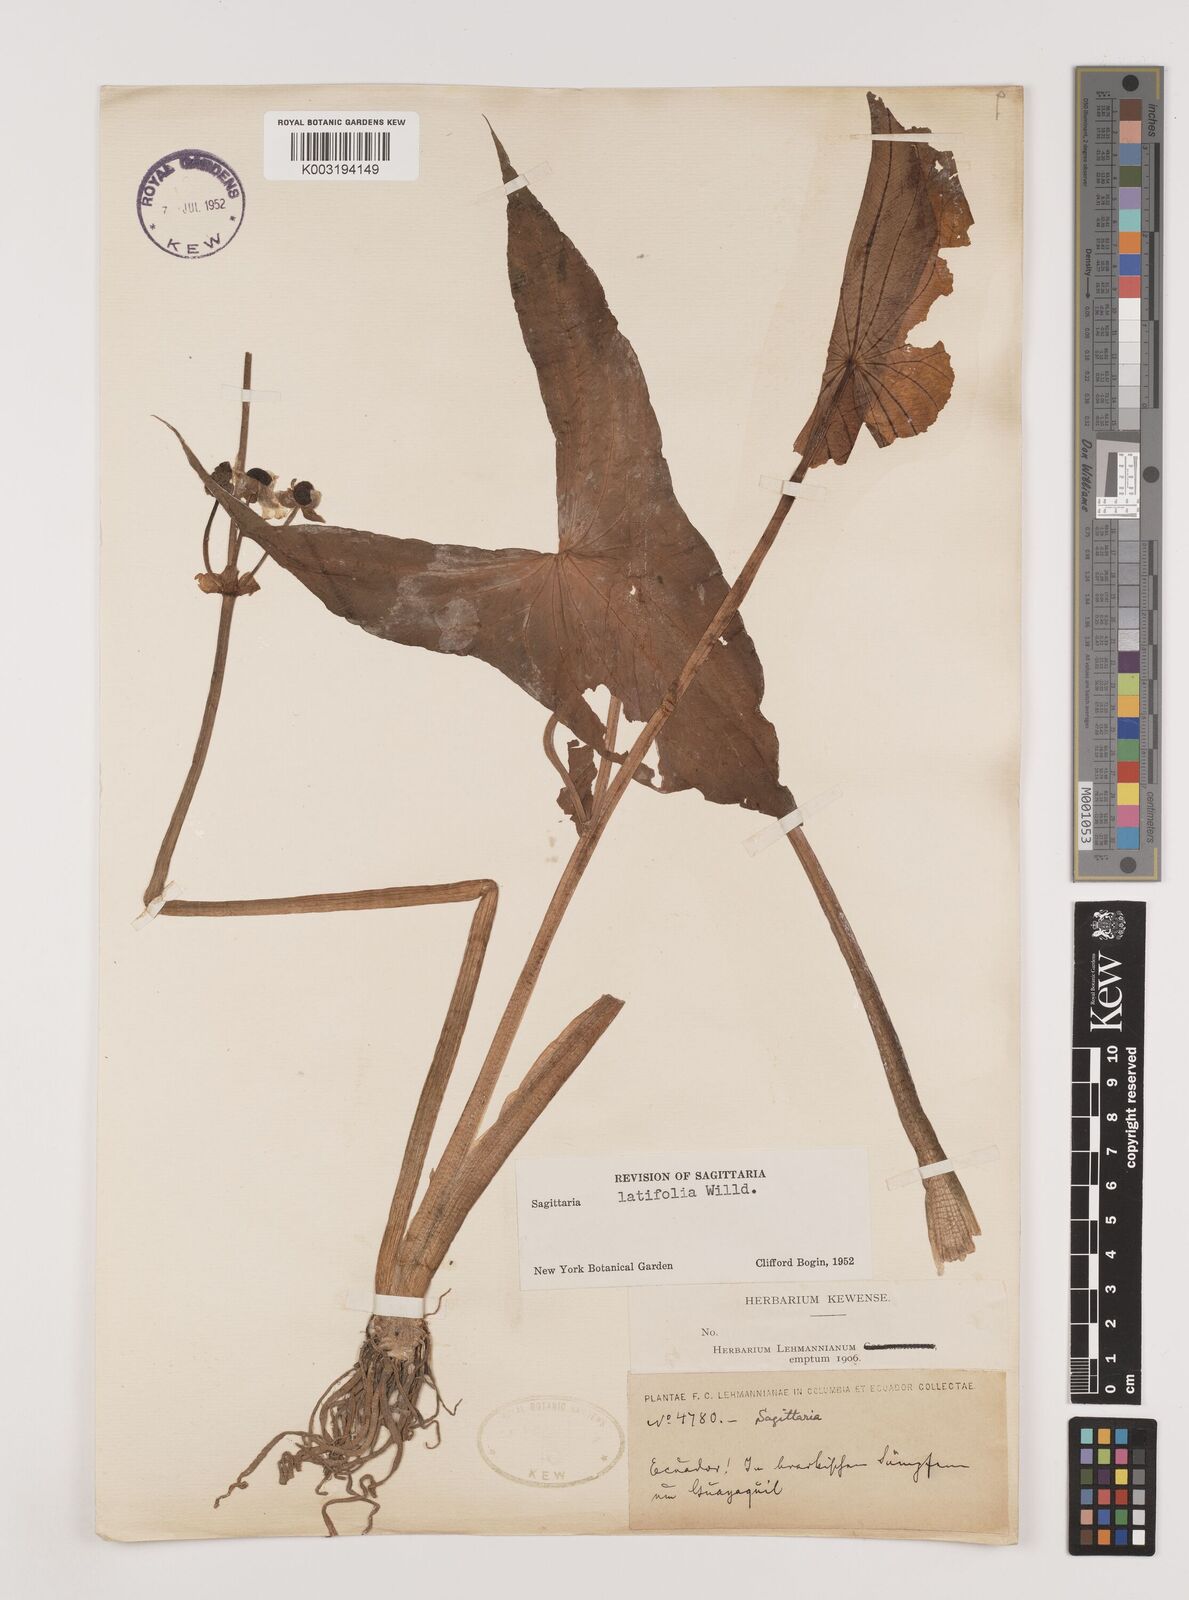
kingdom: Plantae
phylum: Tracheophyta
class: Liliopsida
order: Alismatales
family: Alismataceae
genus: Sagittaria
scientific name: Sagittaria latifolia
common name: Duck-potato
